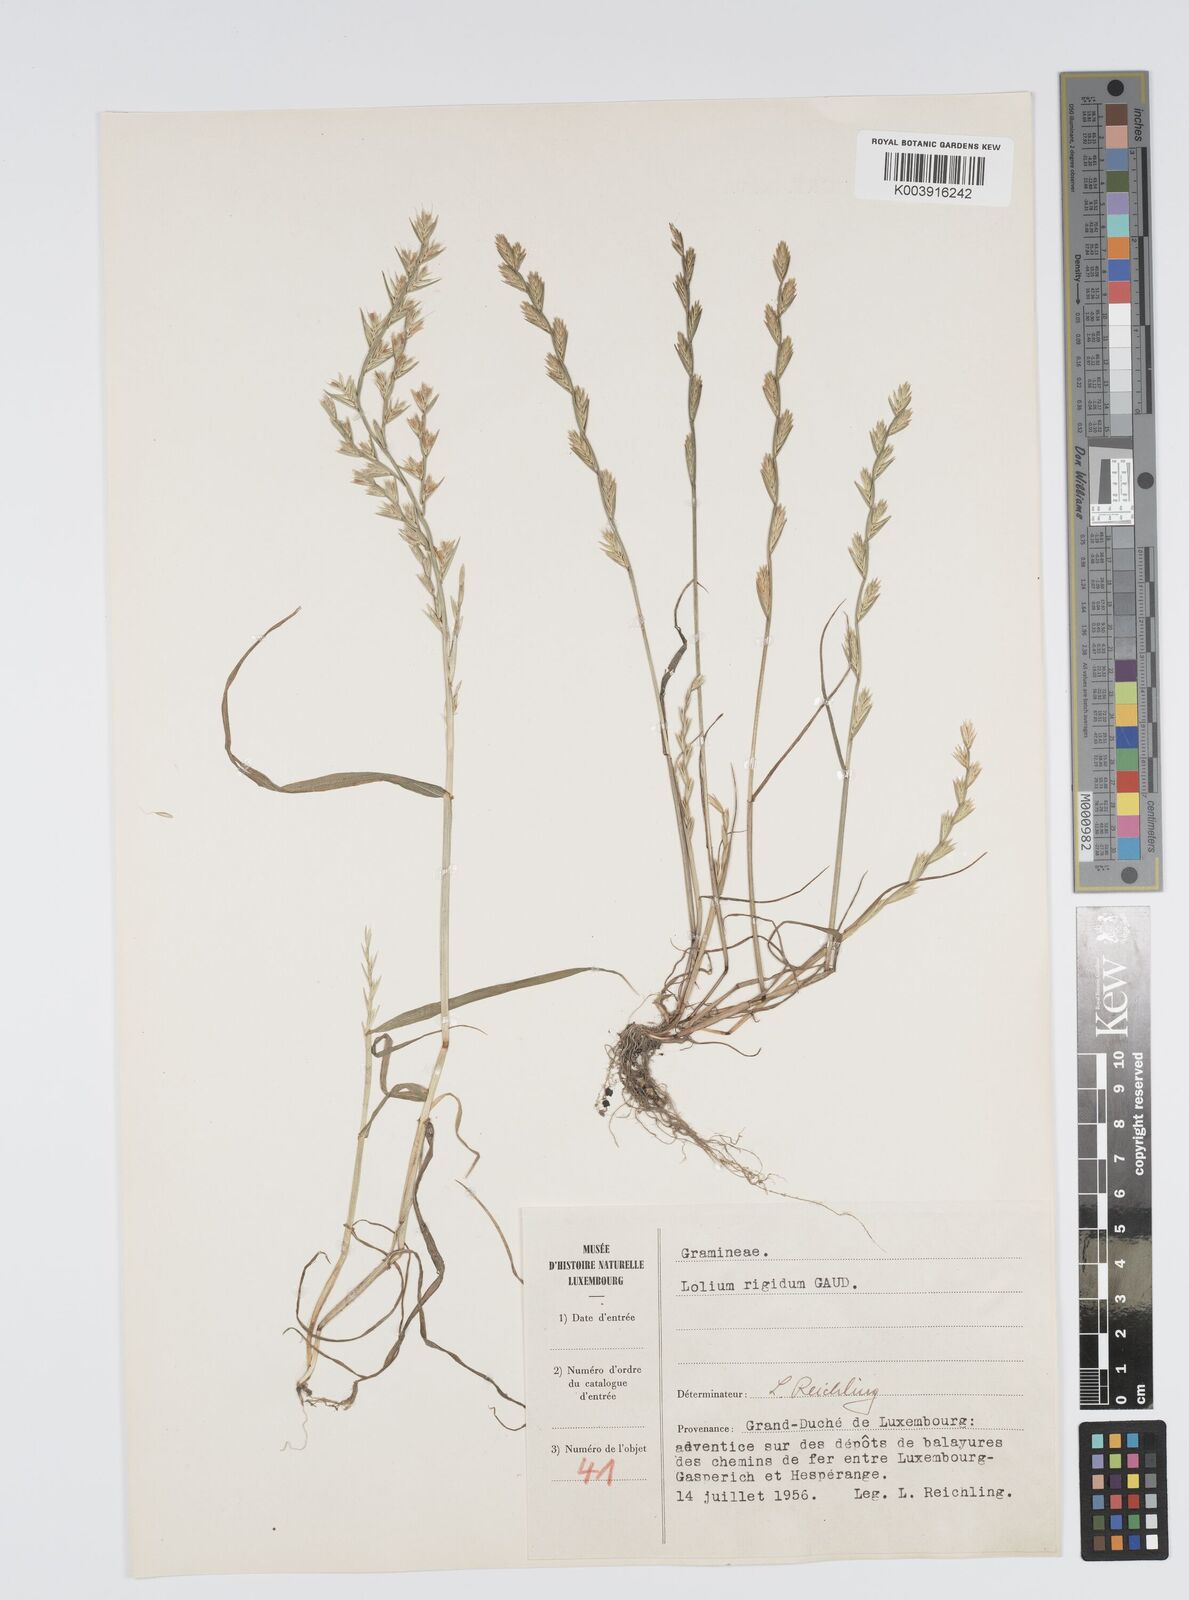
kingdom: Plantae
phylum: Tracheophyta
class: Liliopsida
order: Poales
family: Poaceae
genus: Lolium
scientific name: Lolium rigidum
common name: Wimmera ryegrass
